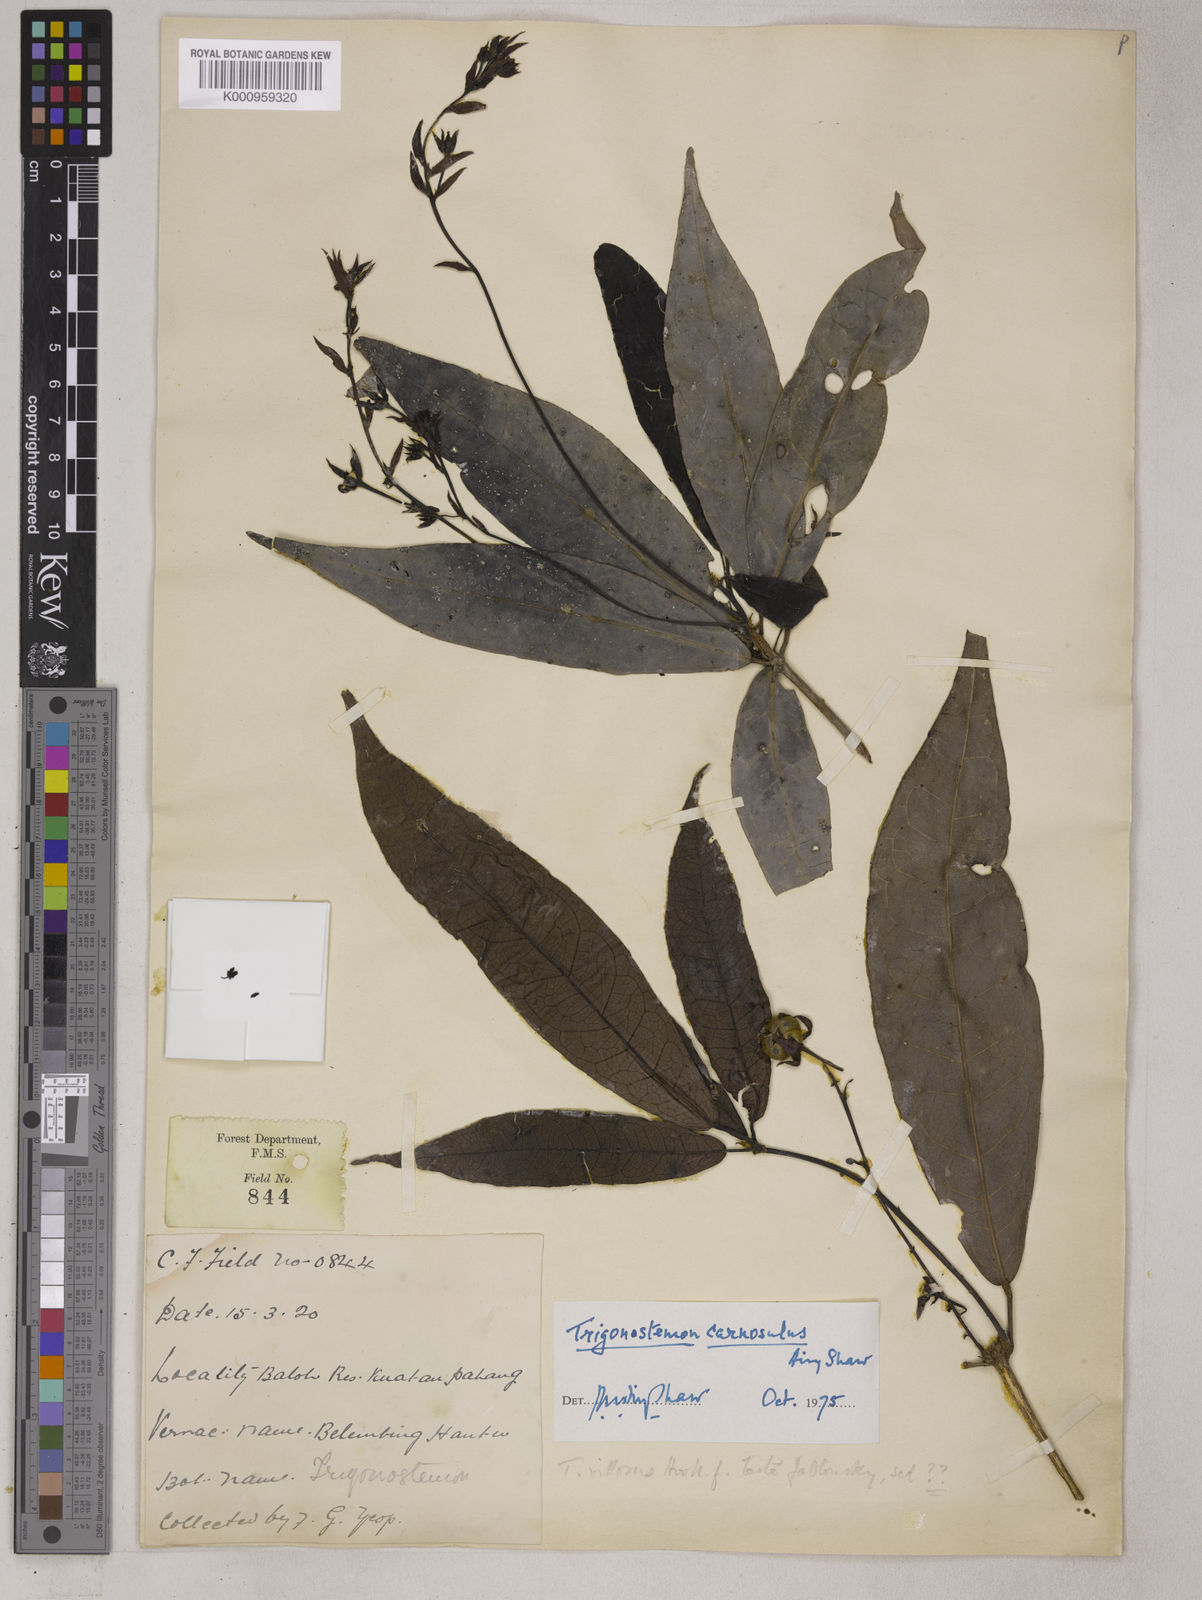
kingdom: Plantae
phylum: Tracheophyta
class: Magnoliopsida
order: Malpighiales
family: Euphorbiaceae
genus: Trigonostemon
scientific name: Trigonostemon villosus
